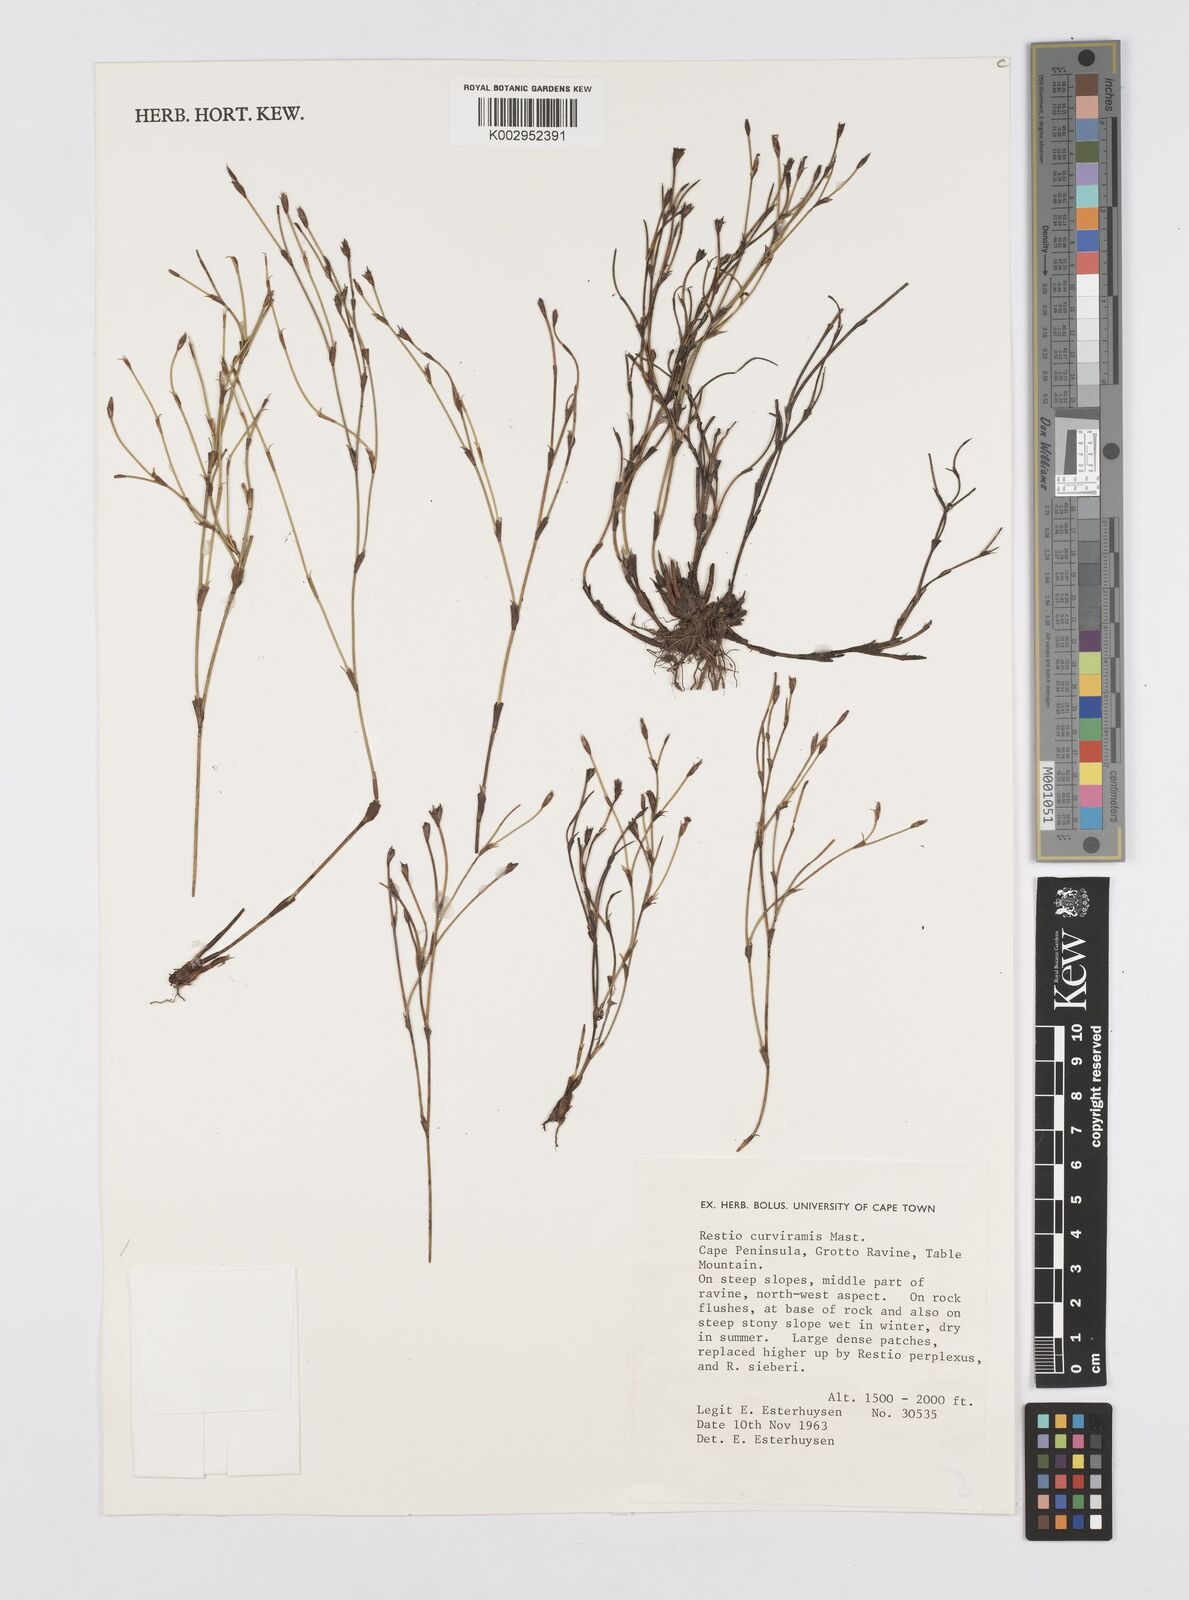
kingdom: Plantae
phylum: Tracheophyta
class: Liliopsida
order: Poales
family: Restionaceae
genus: Restio
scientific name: Restio curviramis
